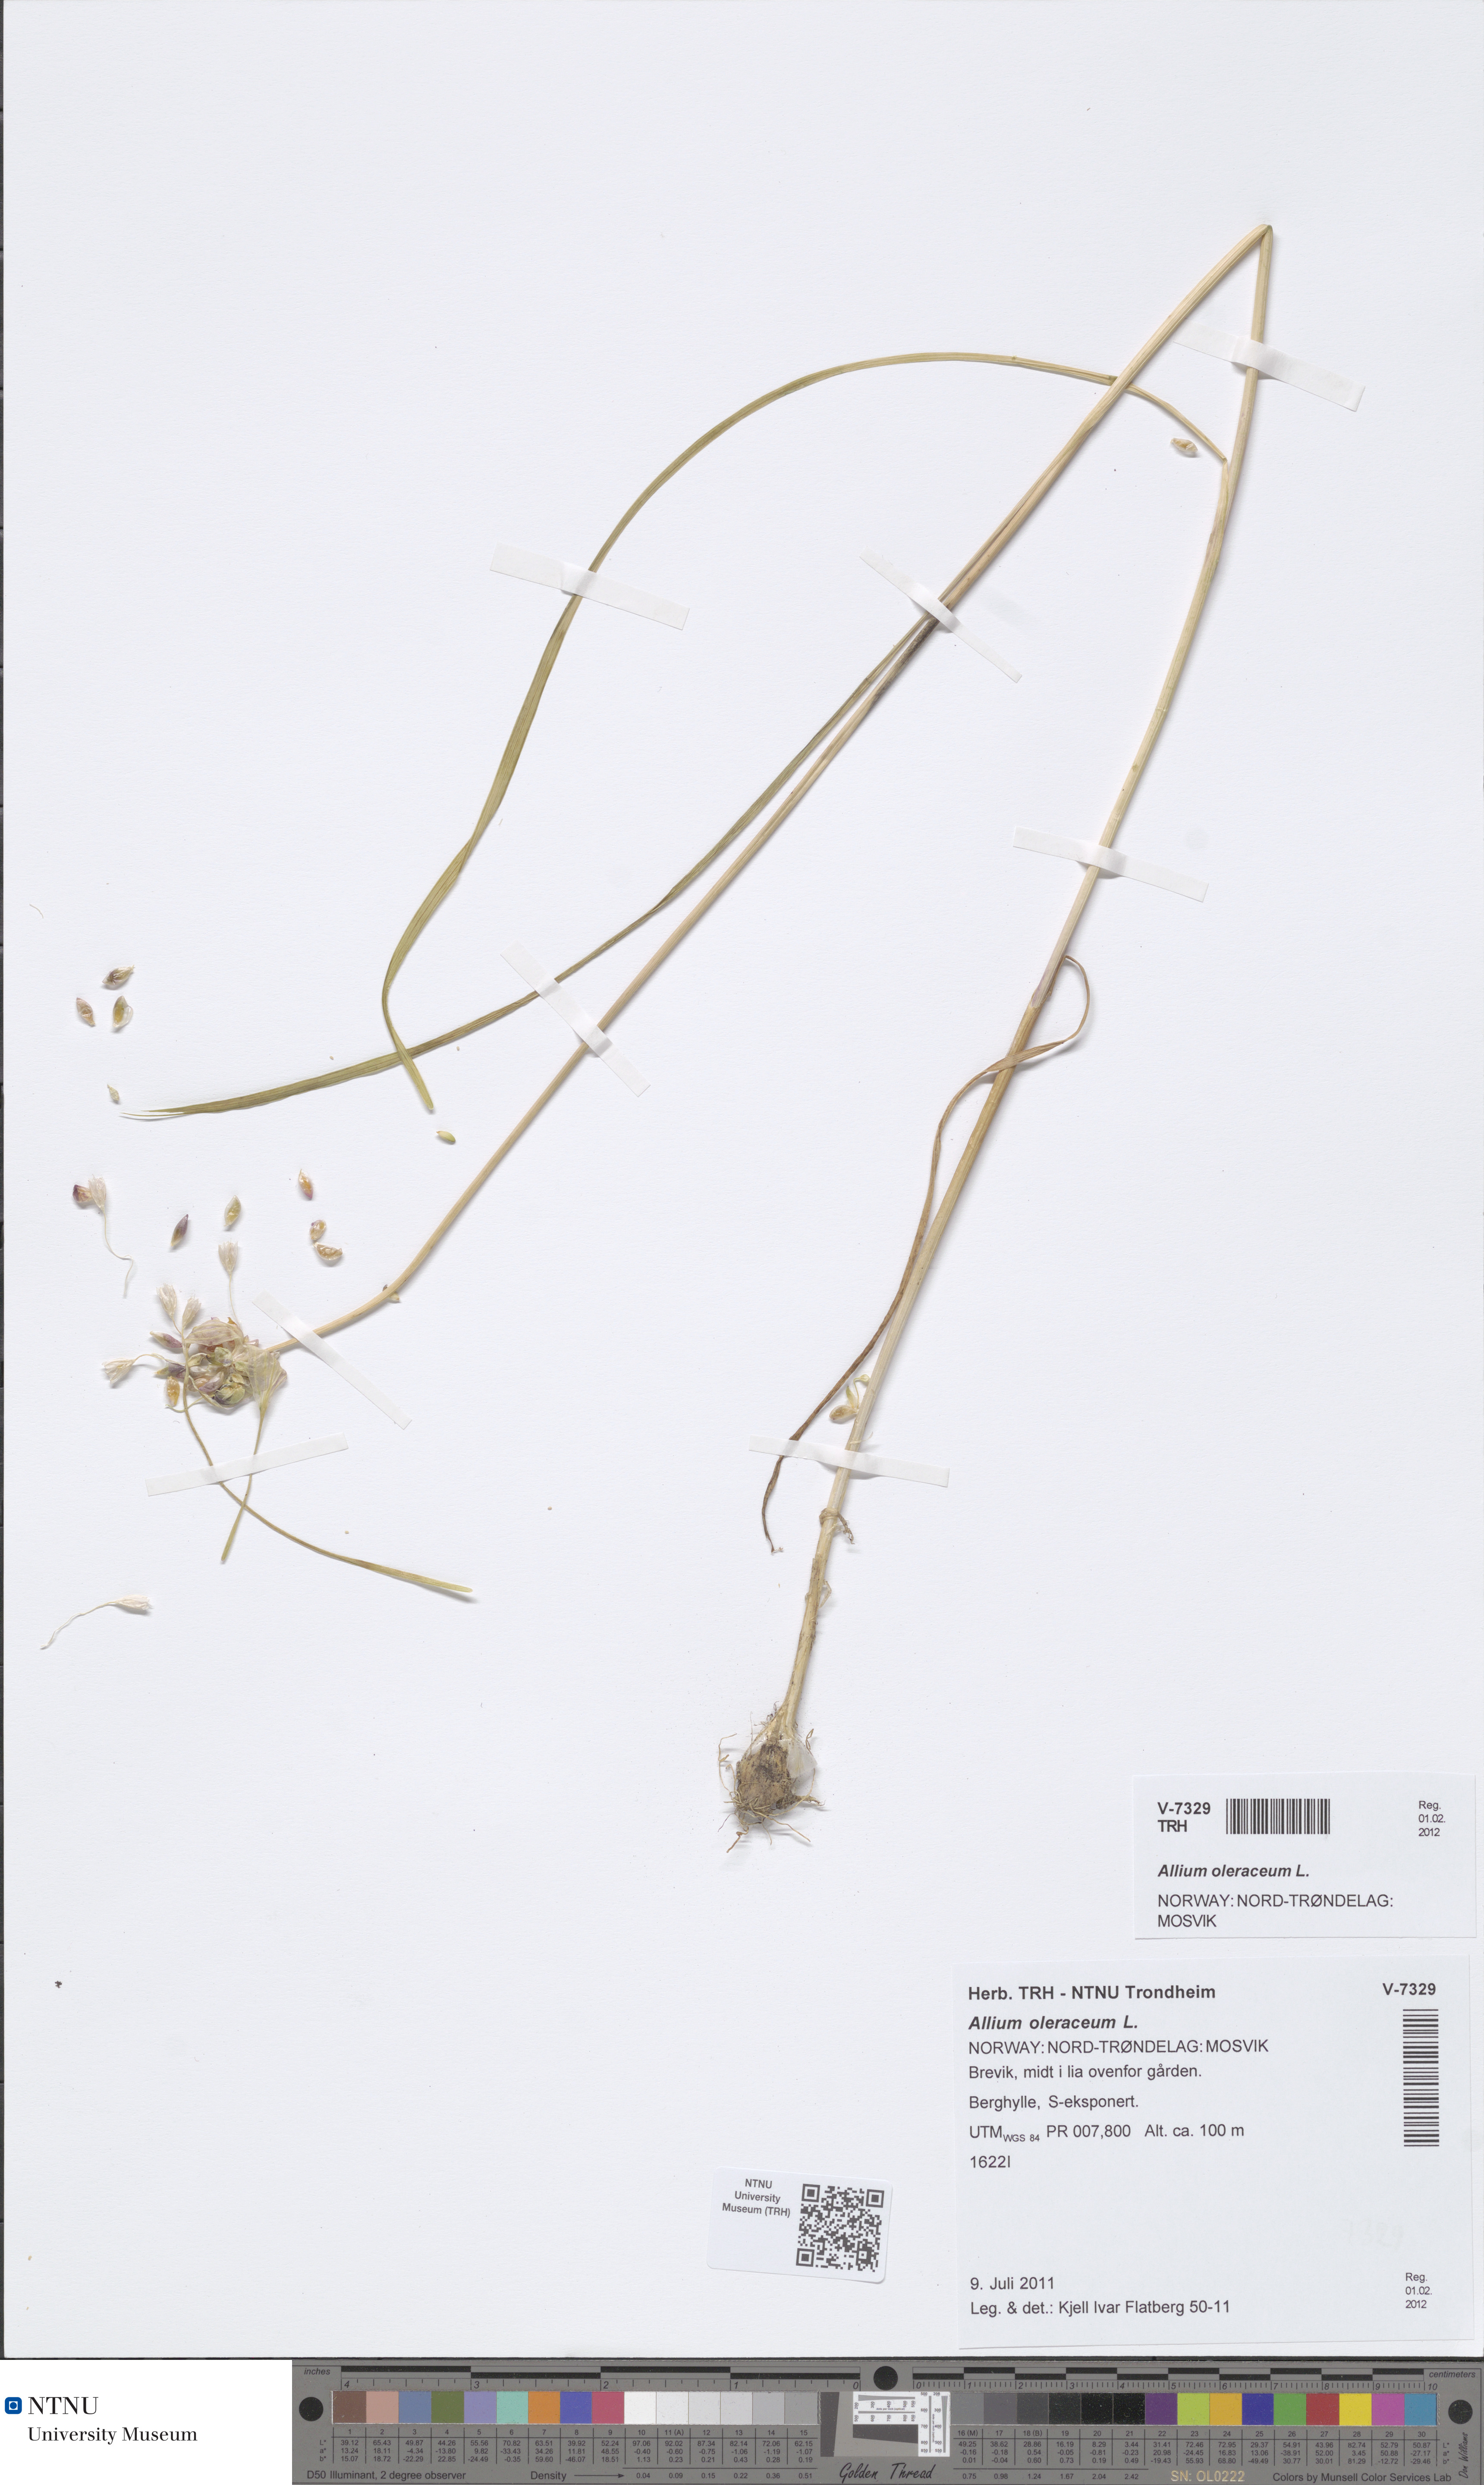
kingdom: Plantae
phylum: Tracheophyta
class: Liliopsida
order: Asparagales
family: Amaryllidaceae
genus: Allium
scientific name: Allium oleraceum
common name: Field garlic
